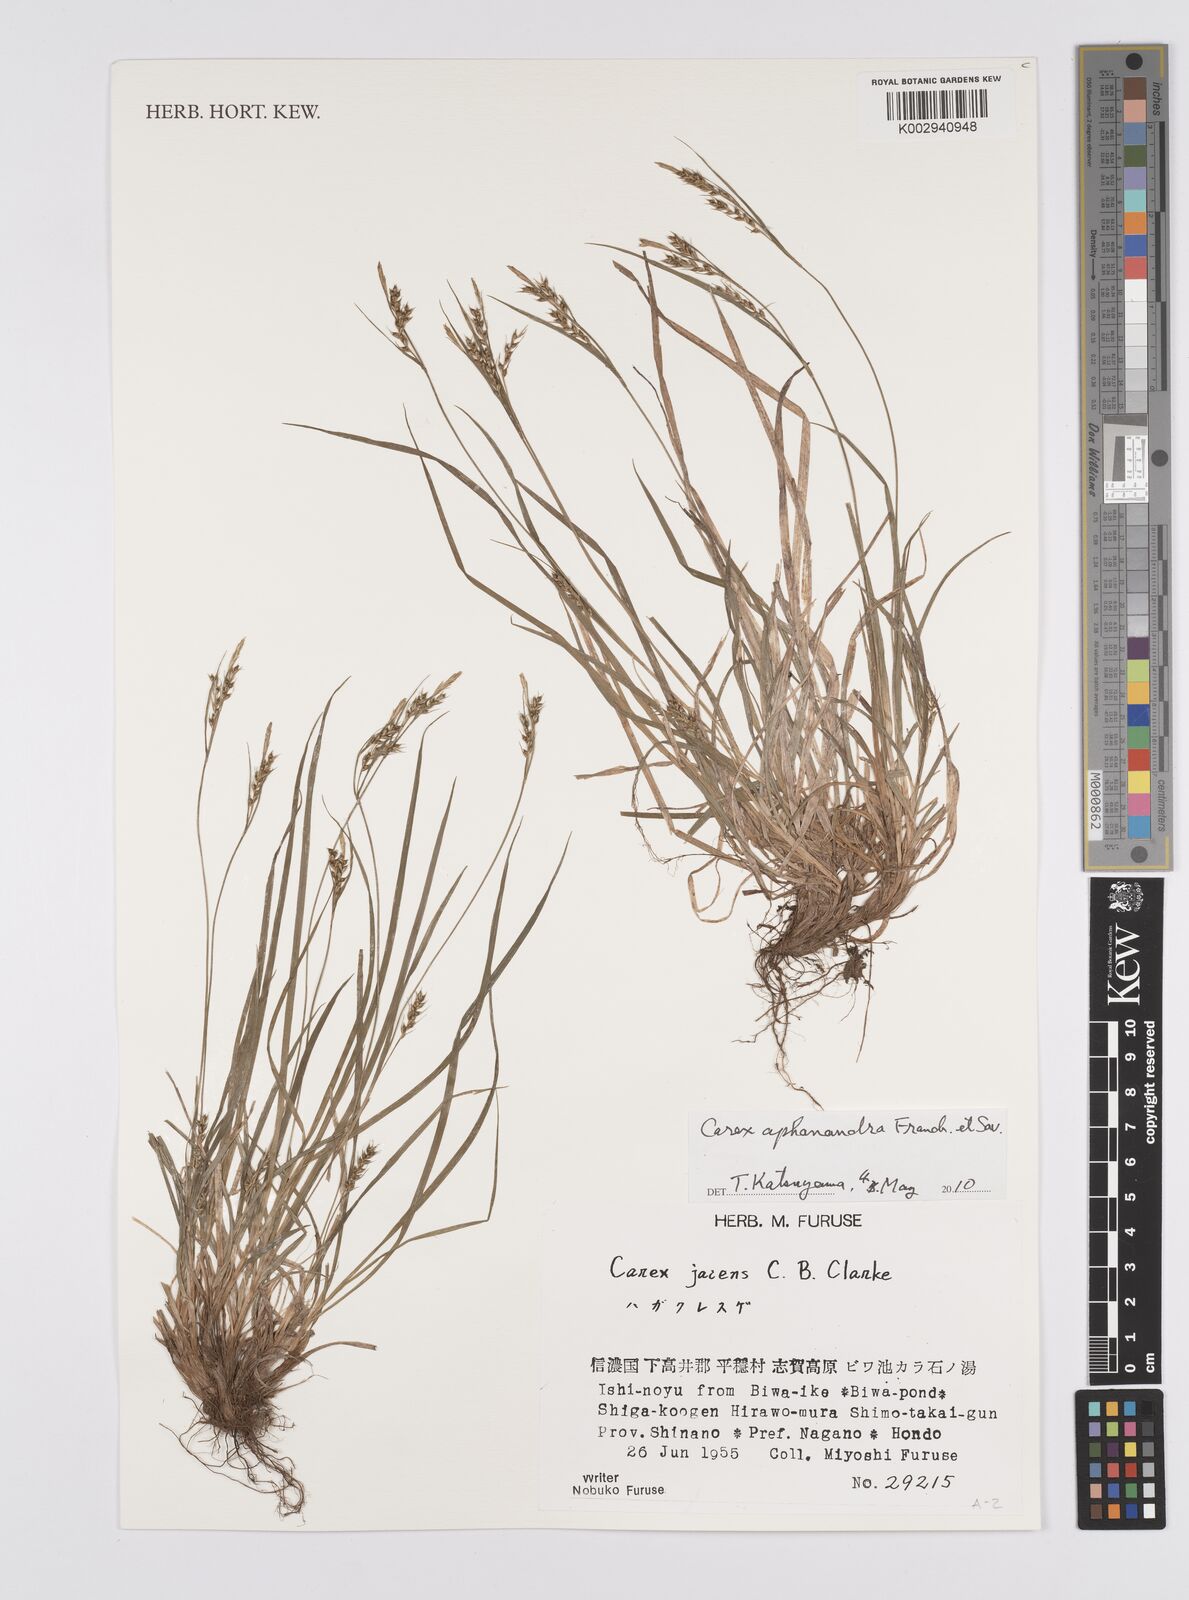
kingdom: Plantae
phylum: Tracheophyta
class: Liliopsida
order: Poales
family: Cyperaceae
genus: Carex
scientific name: Carex breviculmis
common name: Asian shortstem sedge
